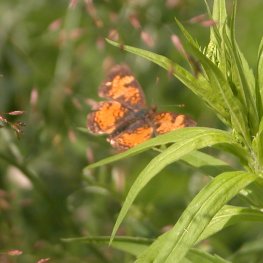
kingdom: Animalia
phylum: Arthropoda
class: Insecta
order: Lepidoptera
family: Nymphalidae
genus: Phyciodes
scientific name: Phyciodes tharos
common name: Northern Crescent
